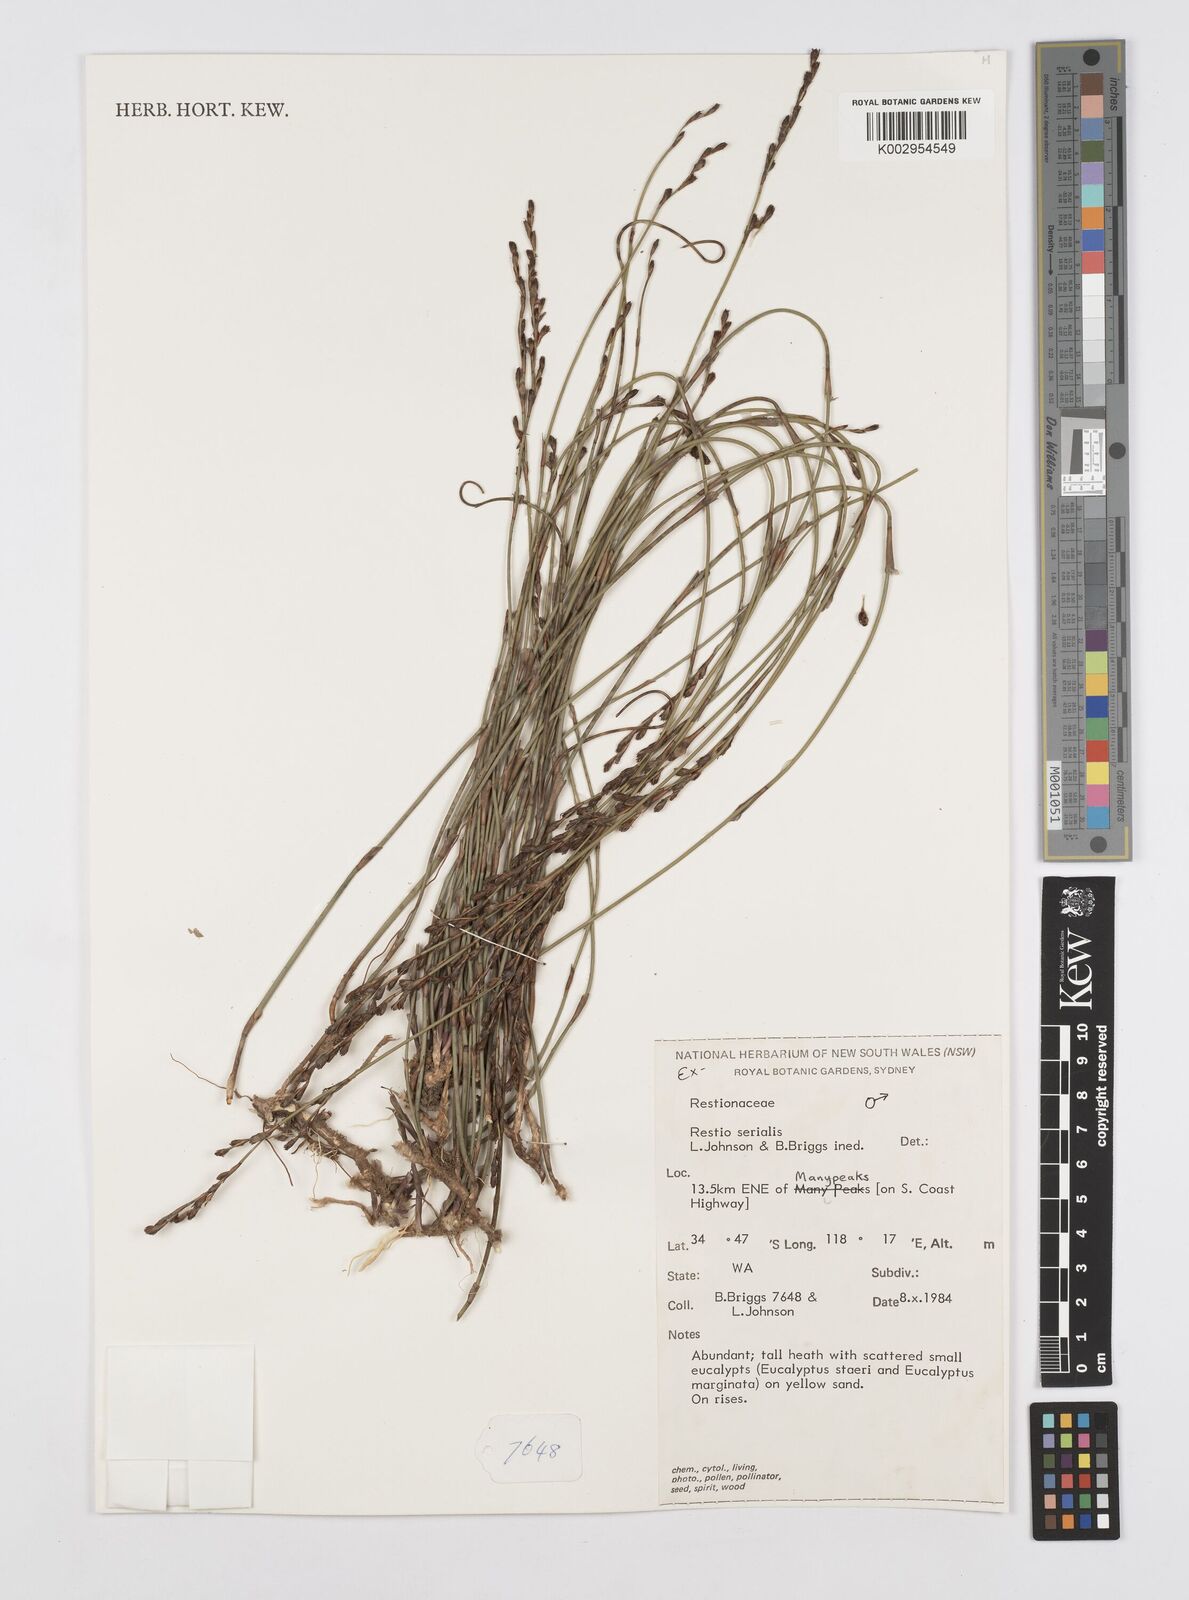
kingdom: Plantae
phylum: Tracheophyta
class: Liliopsida
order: Poales
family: Restionaceae
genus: Chordifex
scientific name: Chordifex isomorphus
